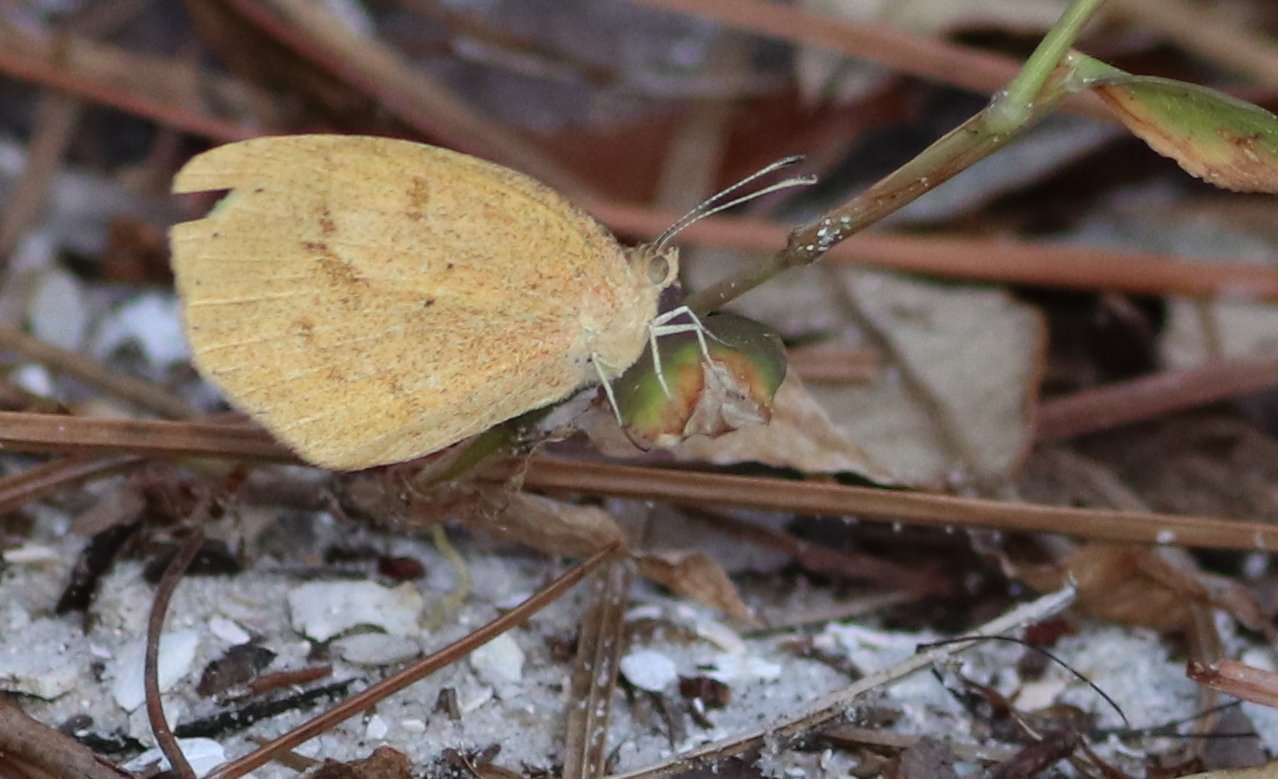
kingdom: Animalia
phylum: Arthropoda
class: Insecta
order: Lepidoptera
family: Pieridae
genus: Eurema
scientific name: Eurema daira
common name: Barred Yellow
